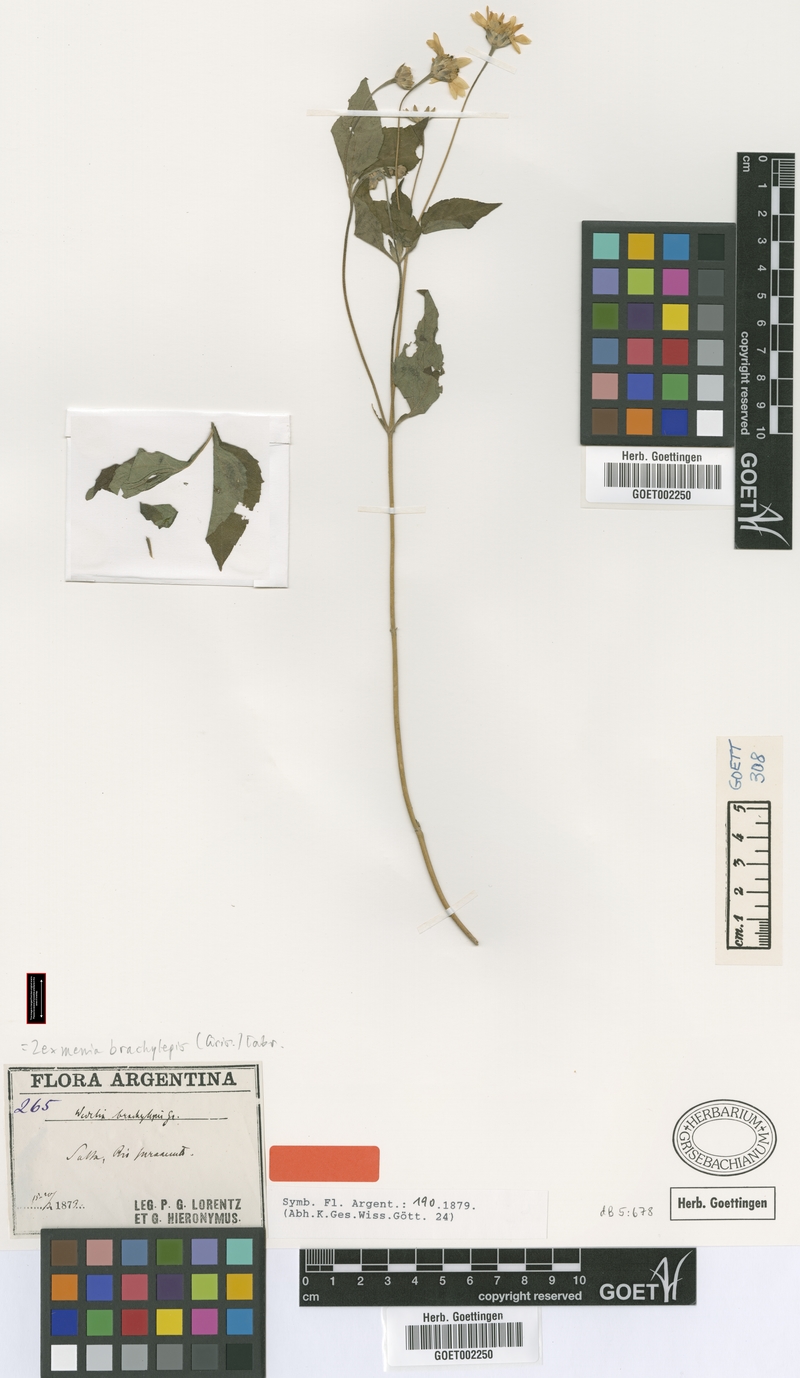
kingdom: Plantae
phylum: Tracheophyta
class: Magnoliopsida
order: Asterales
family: Asteraceae
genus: Zexmenia
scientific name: Zexmenia brachylepis
